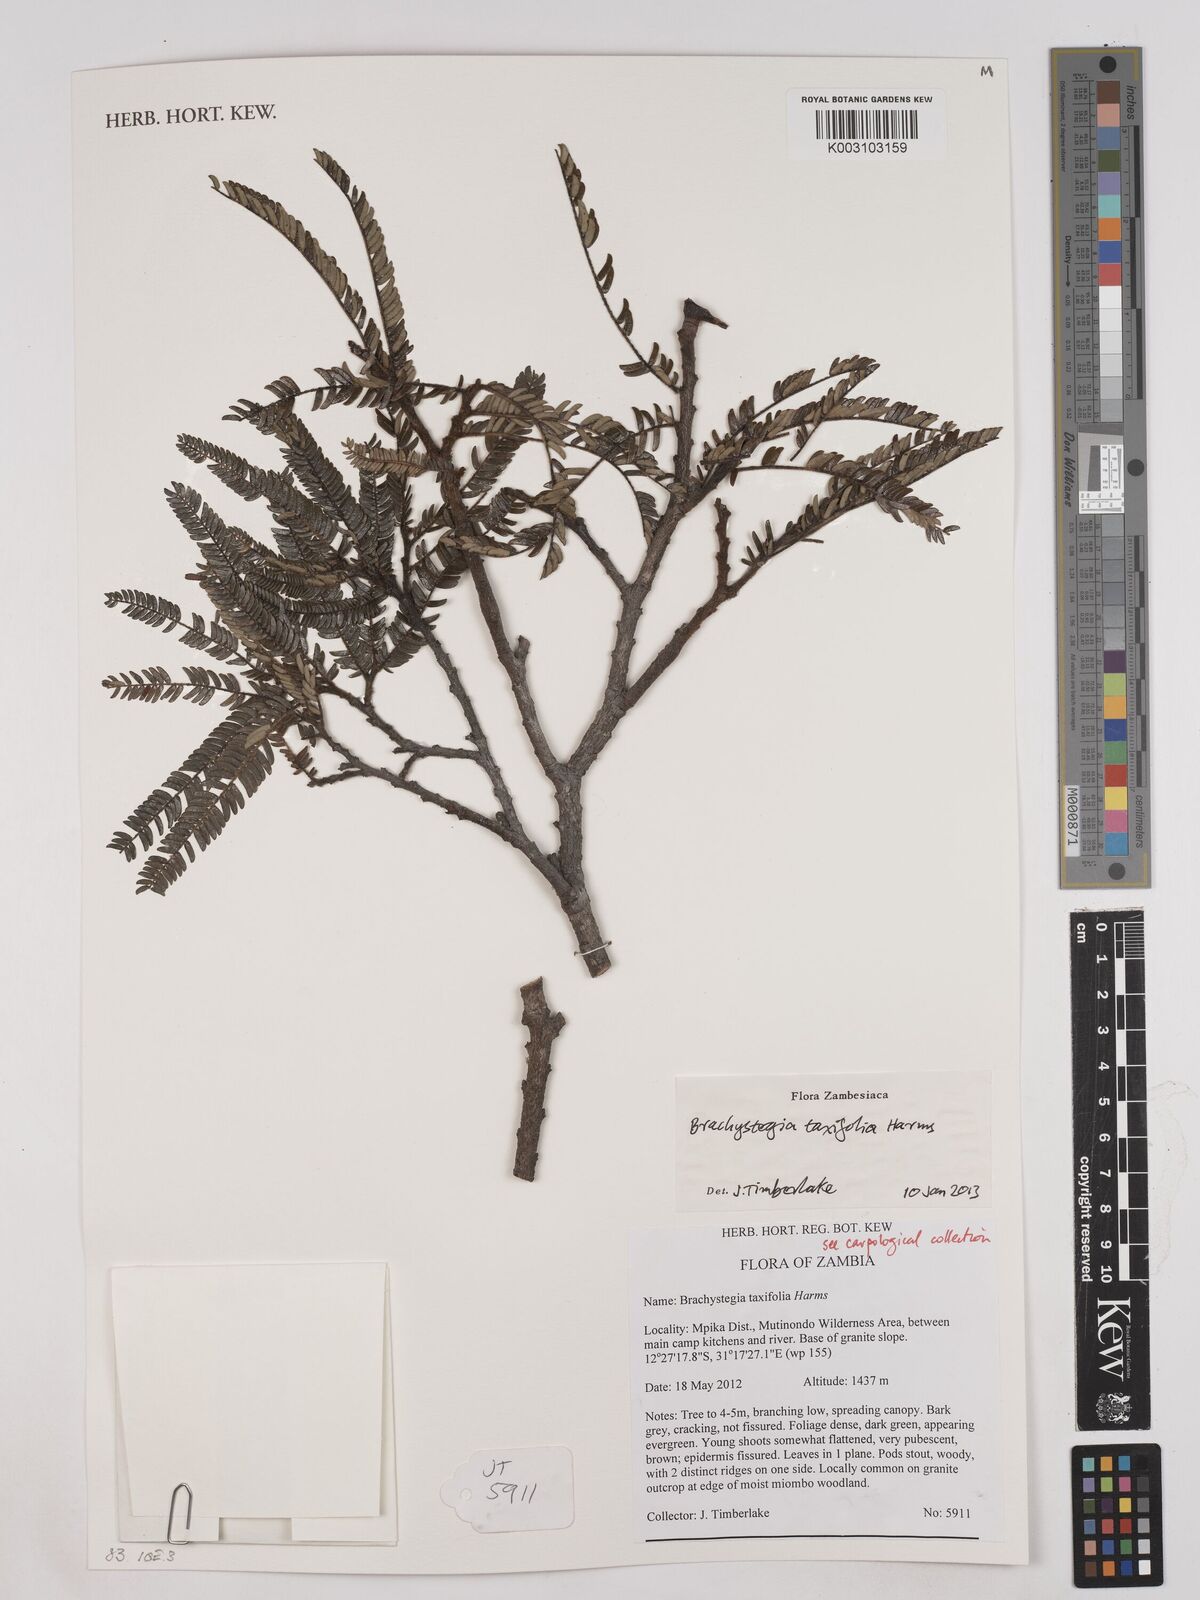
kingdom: Plantae
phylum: Tracheophyta
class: Magnoliopsida
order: Fabales
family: Fabaceae
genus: Brachystegia
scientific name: Brachystegia taxifolia
